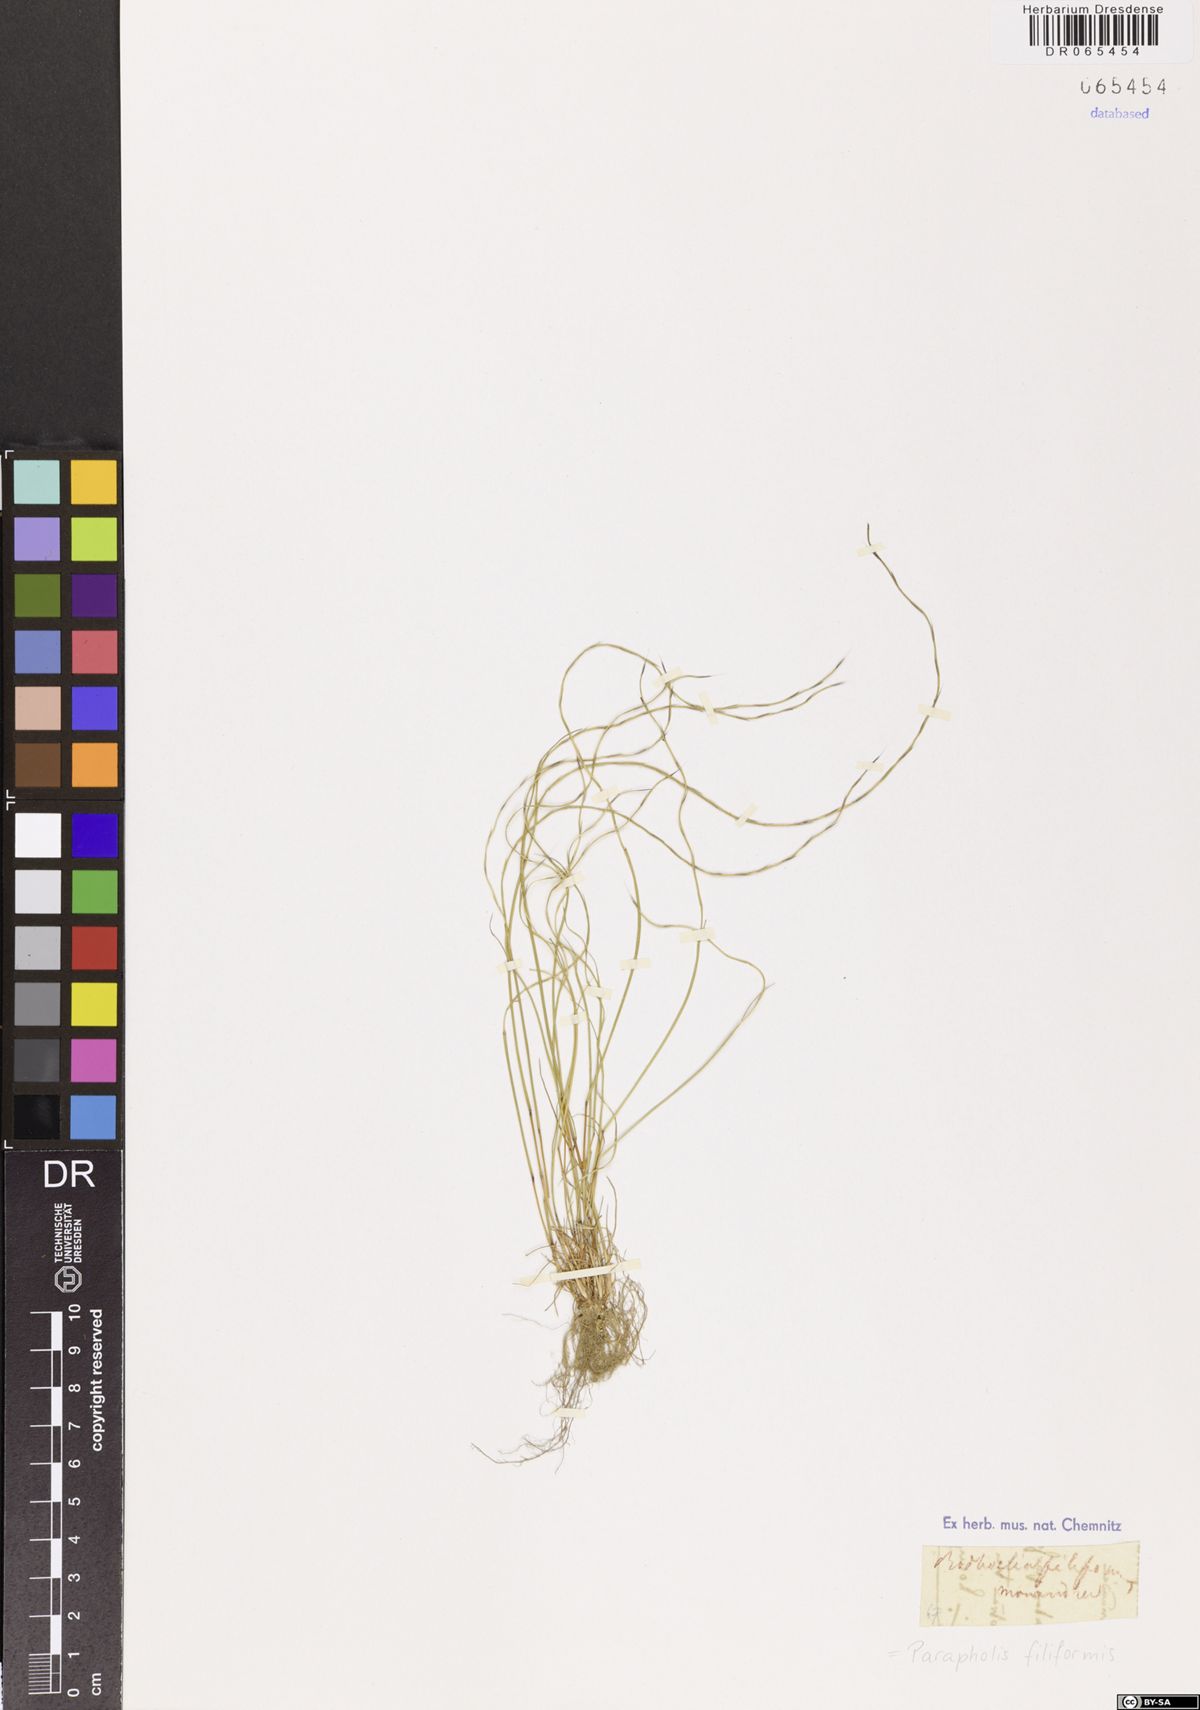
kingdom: Plantae
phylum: Tracheophyta
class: Liliopsida
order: Poales
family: Poaceae
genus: Parapholis
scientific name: Parapholis filiformis
